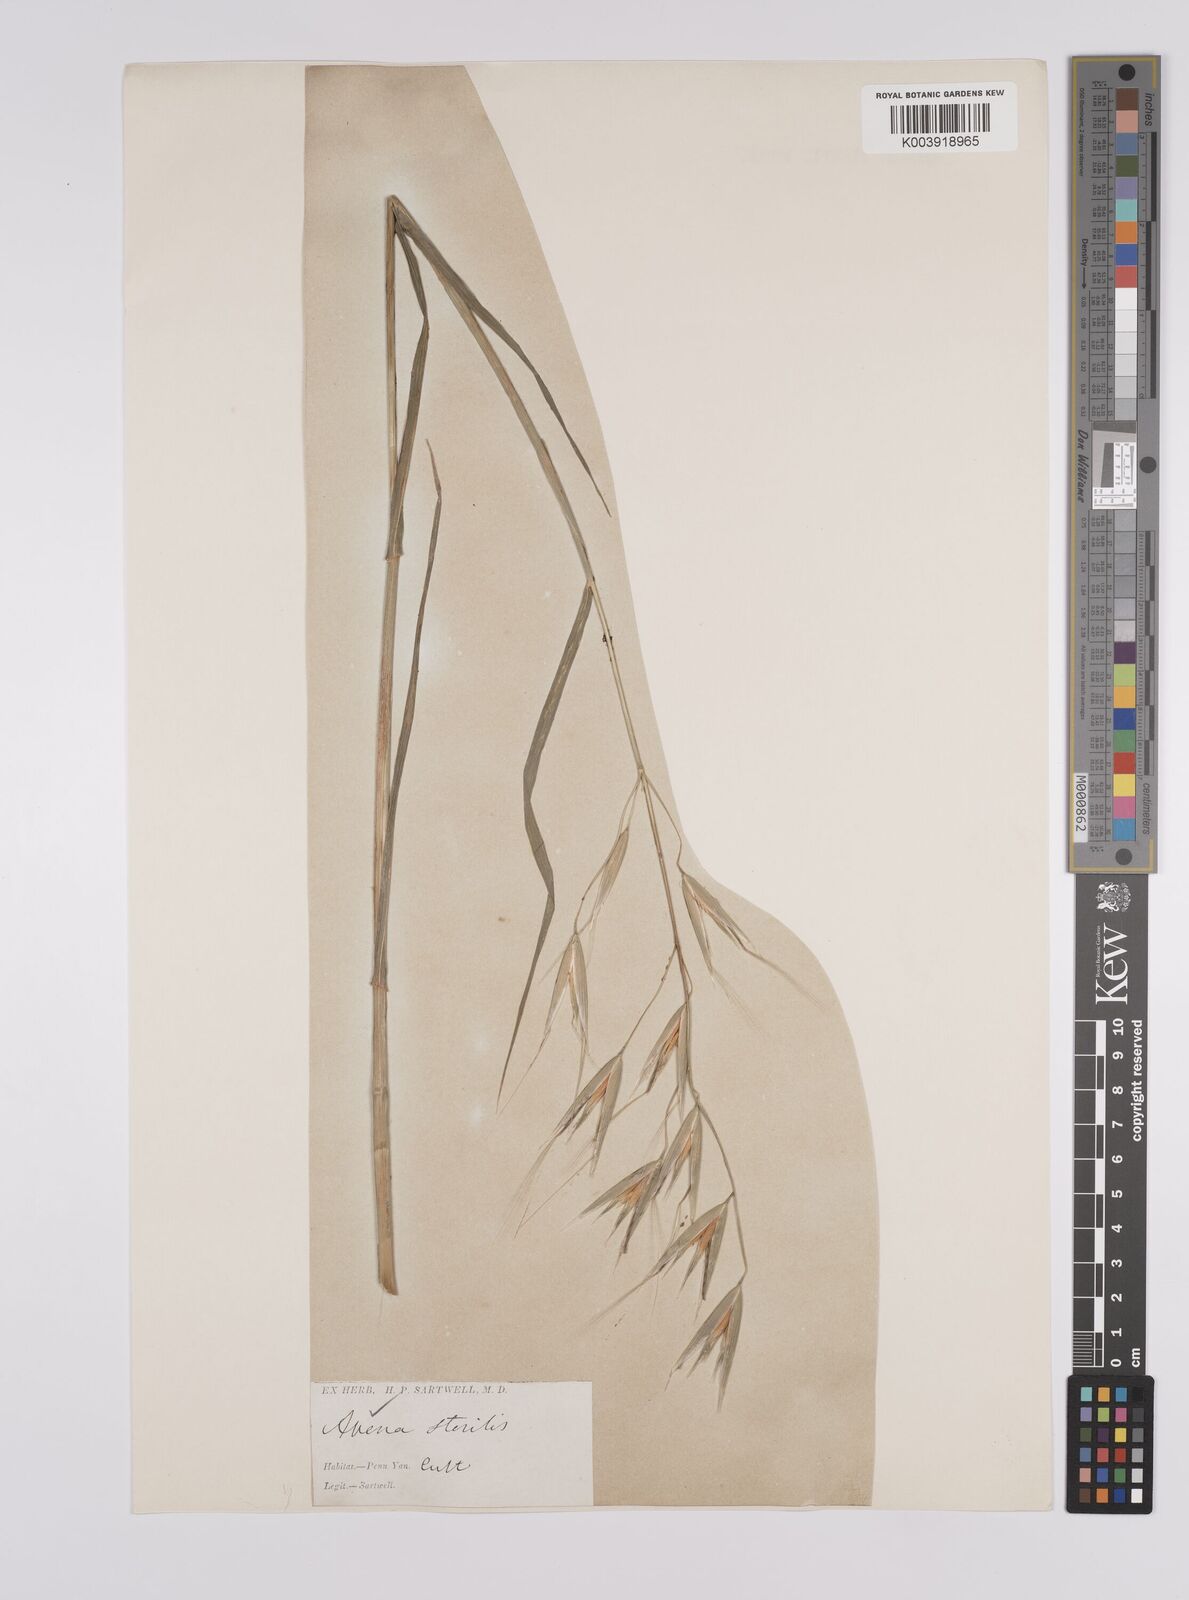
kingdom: Plantae
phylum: Tracheophyta
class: Liliopsida
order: Poales
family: Poaceae
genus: Avena
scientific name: Avena sterilis
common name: Animated oat
